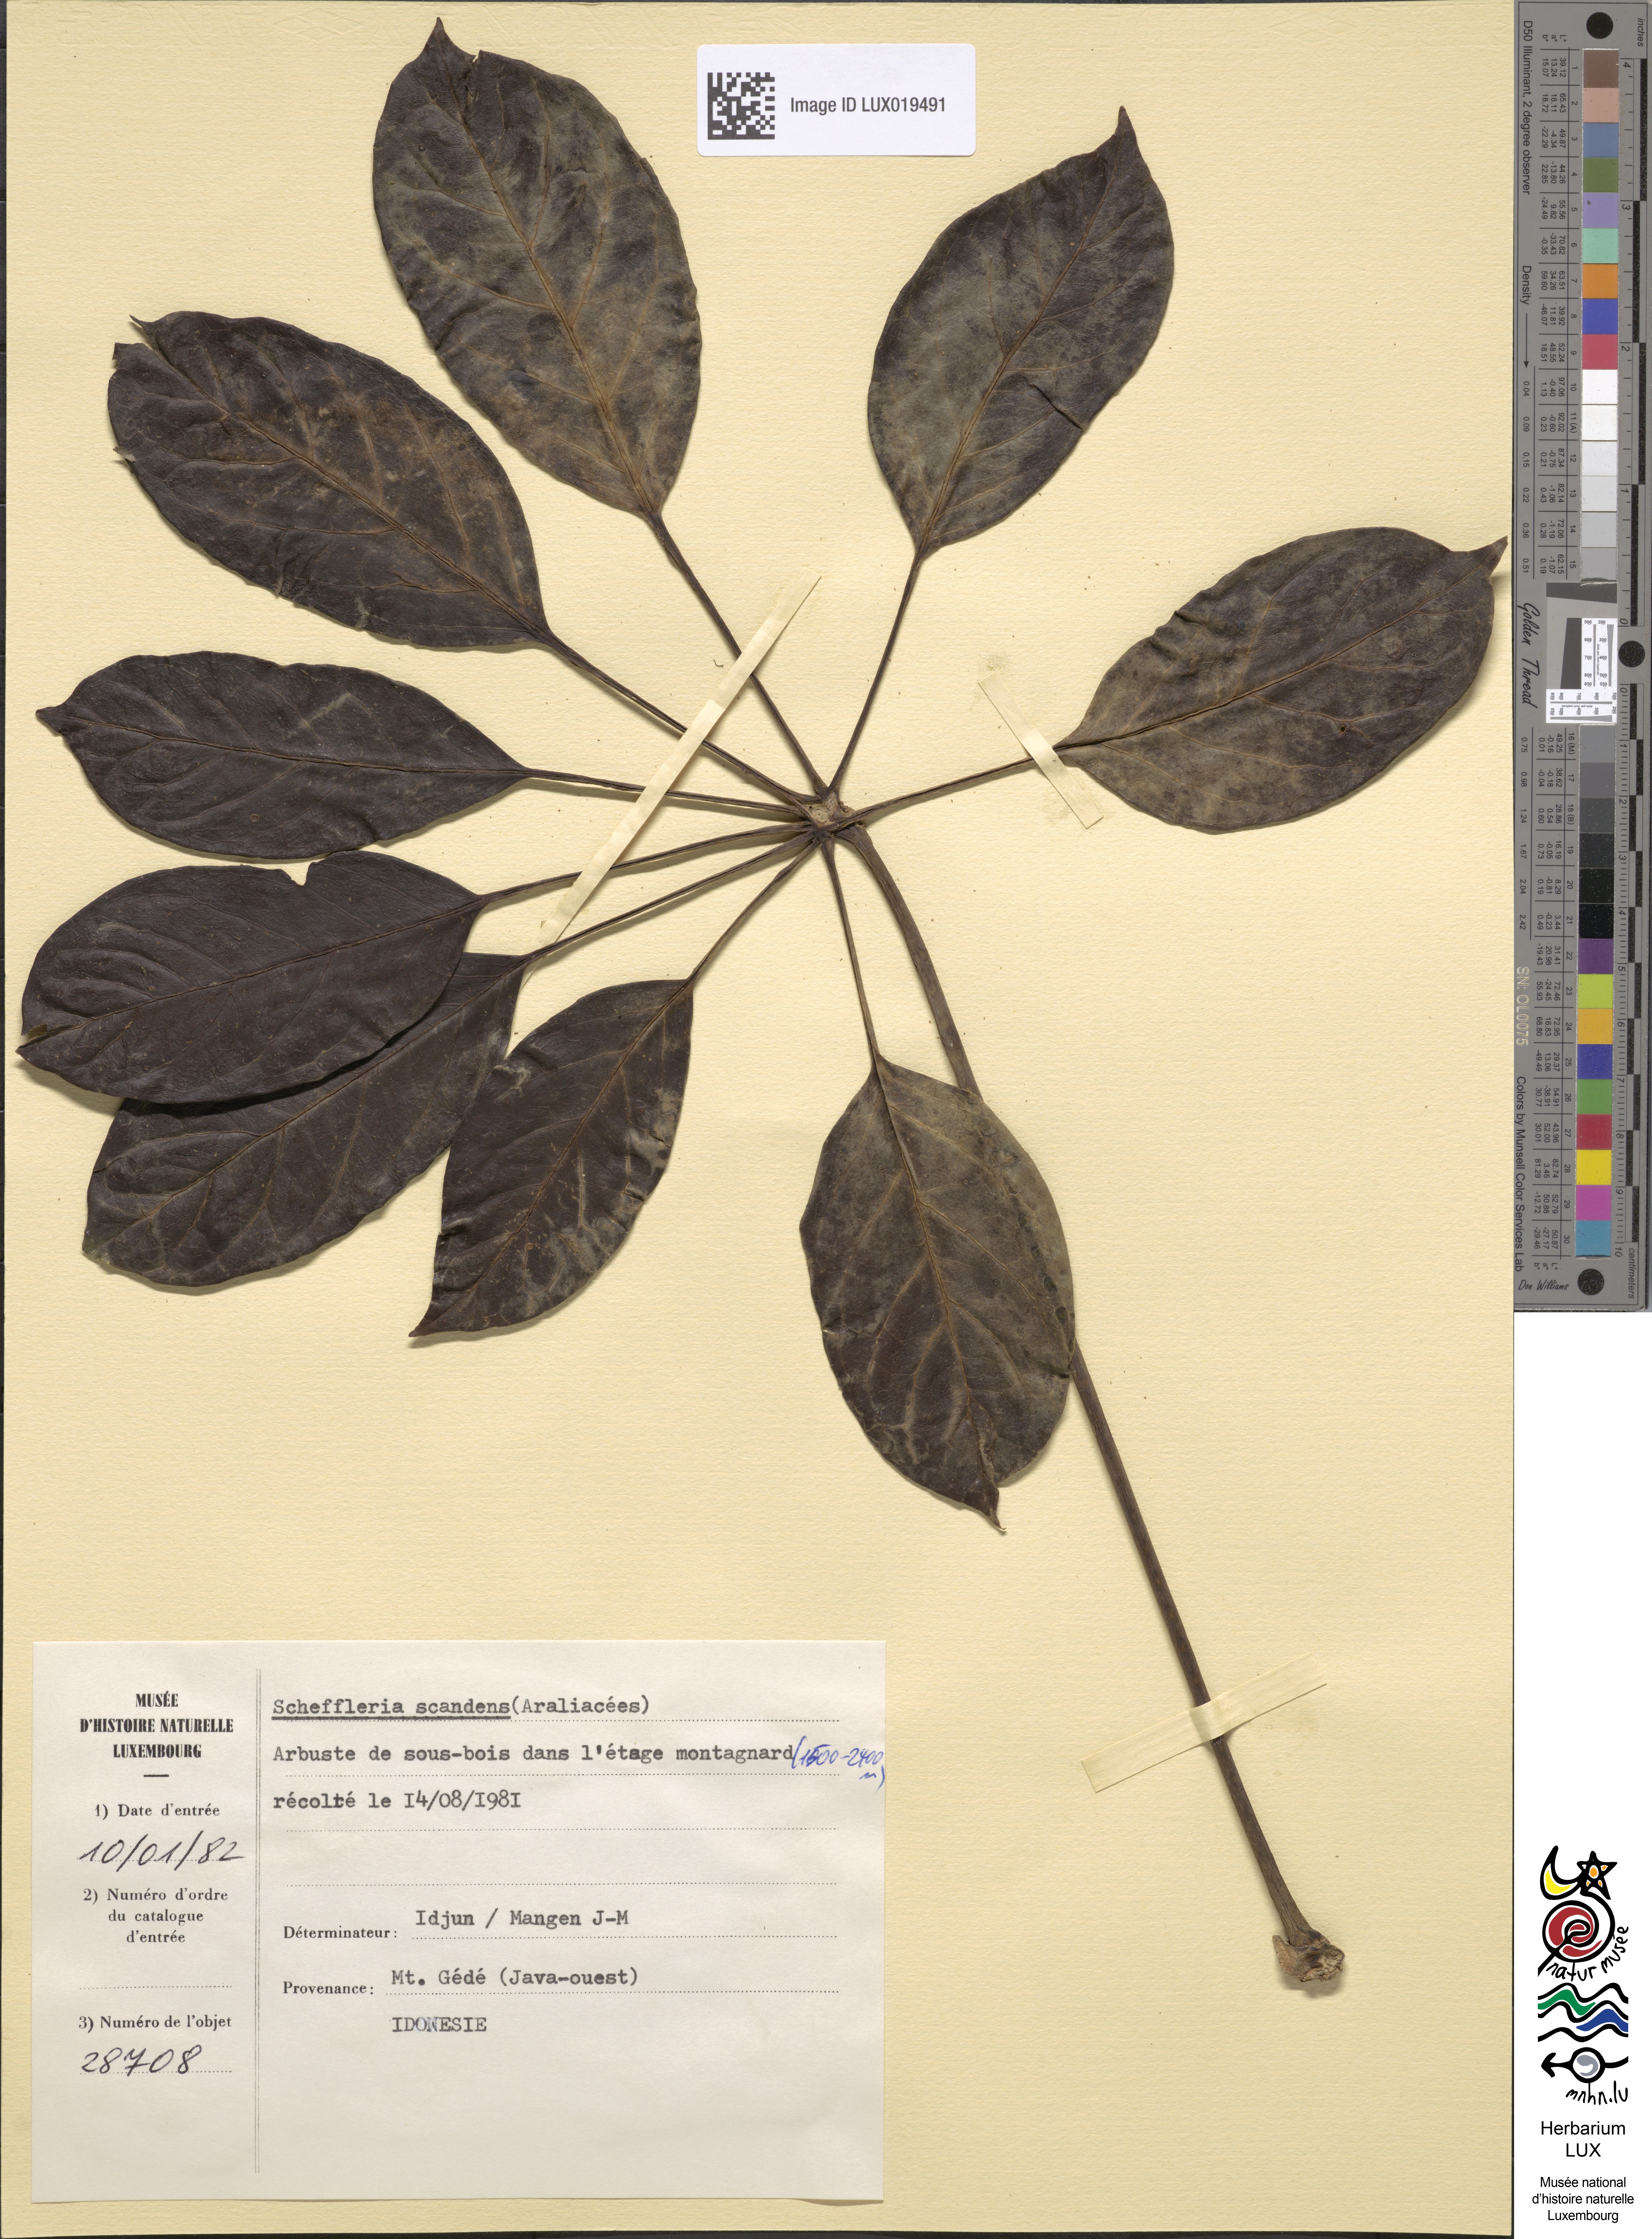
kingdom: Plantae
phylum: Tracheophyta
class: Magnoliopsida
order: Apiales
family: Araliaceae
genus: Schefflera
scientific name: Schefflera scandens
